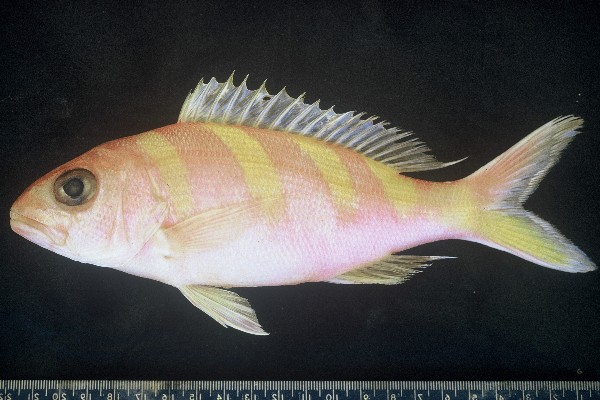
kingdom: Animalia
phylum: Chordata
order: Perciformes
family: Lutjanidae
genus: Pristipomoides
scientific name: Pristipomoides zonatus
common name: Brigham's snapper fish
